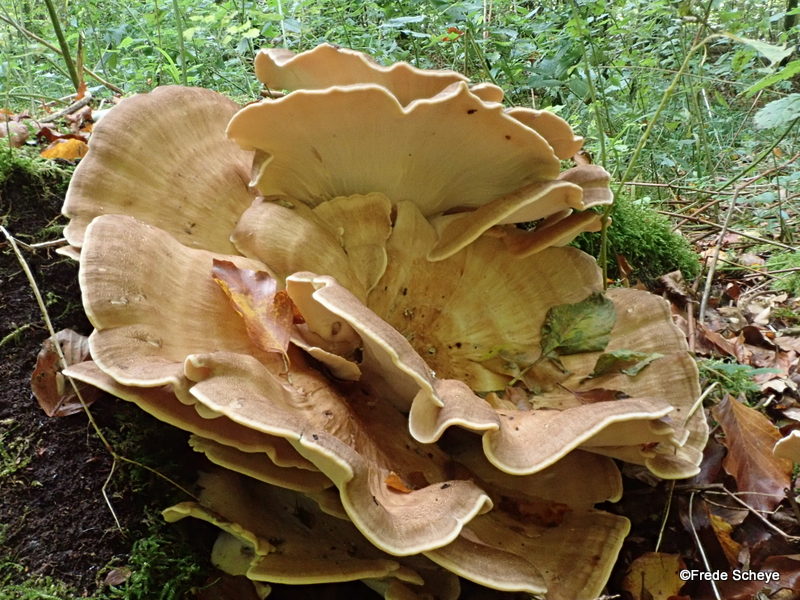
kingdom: Fungi
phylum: Basidiomycota
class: Agaricomycetes
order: Polyporales
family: Meripilaceae
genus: Meripilus
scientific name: Meripilus giganteus
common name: kæmpeporesvamp
